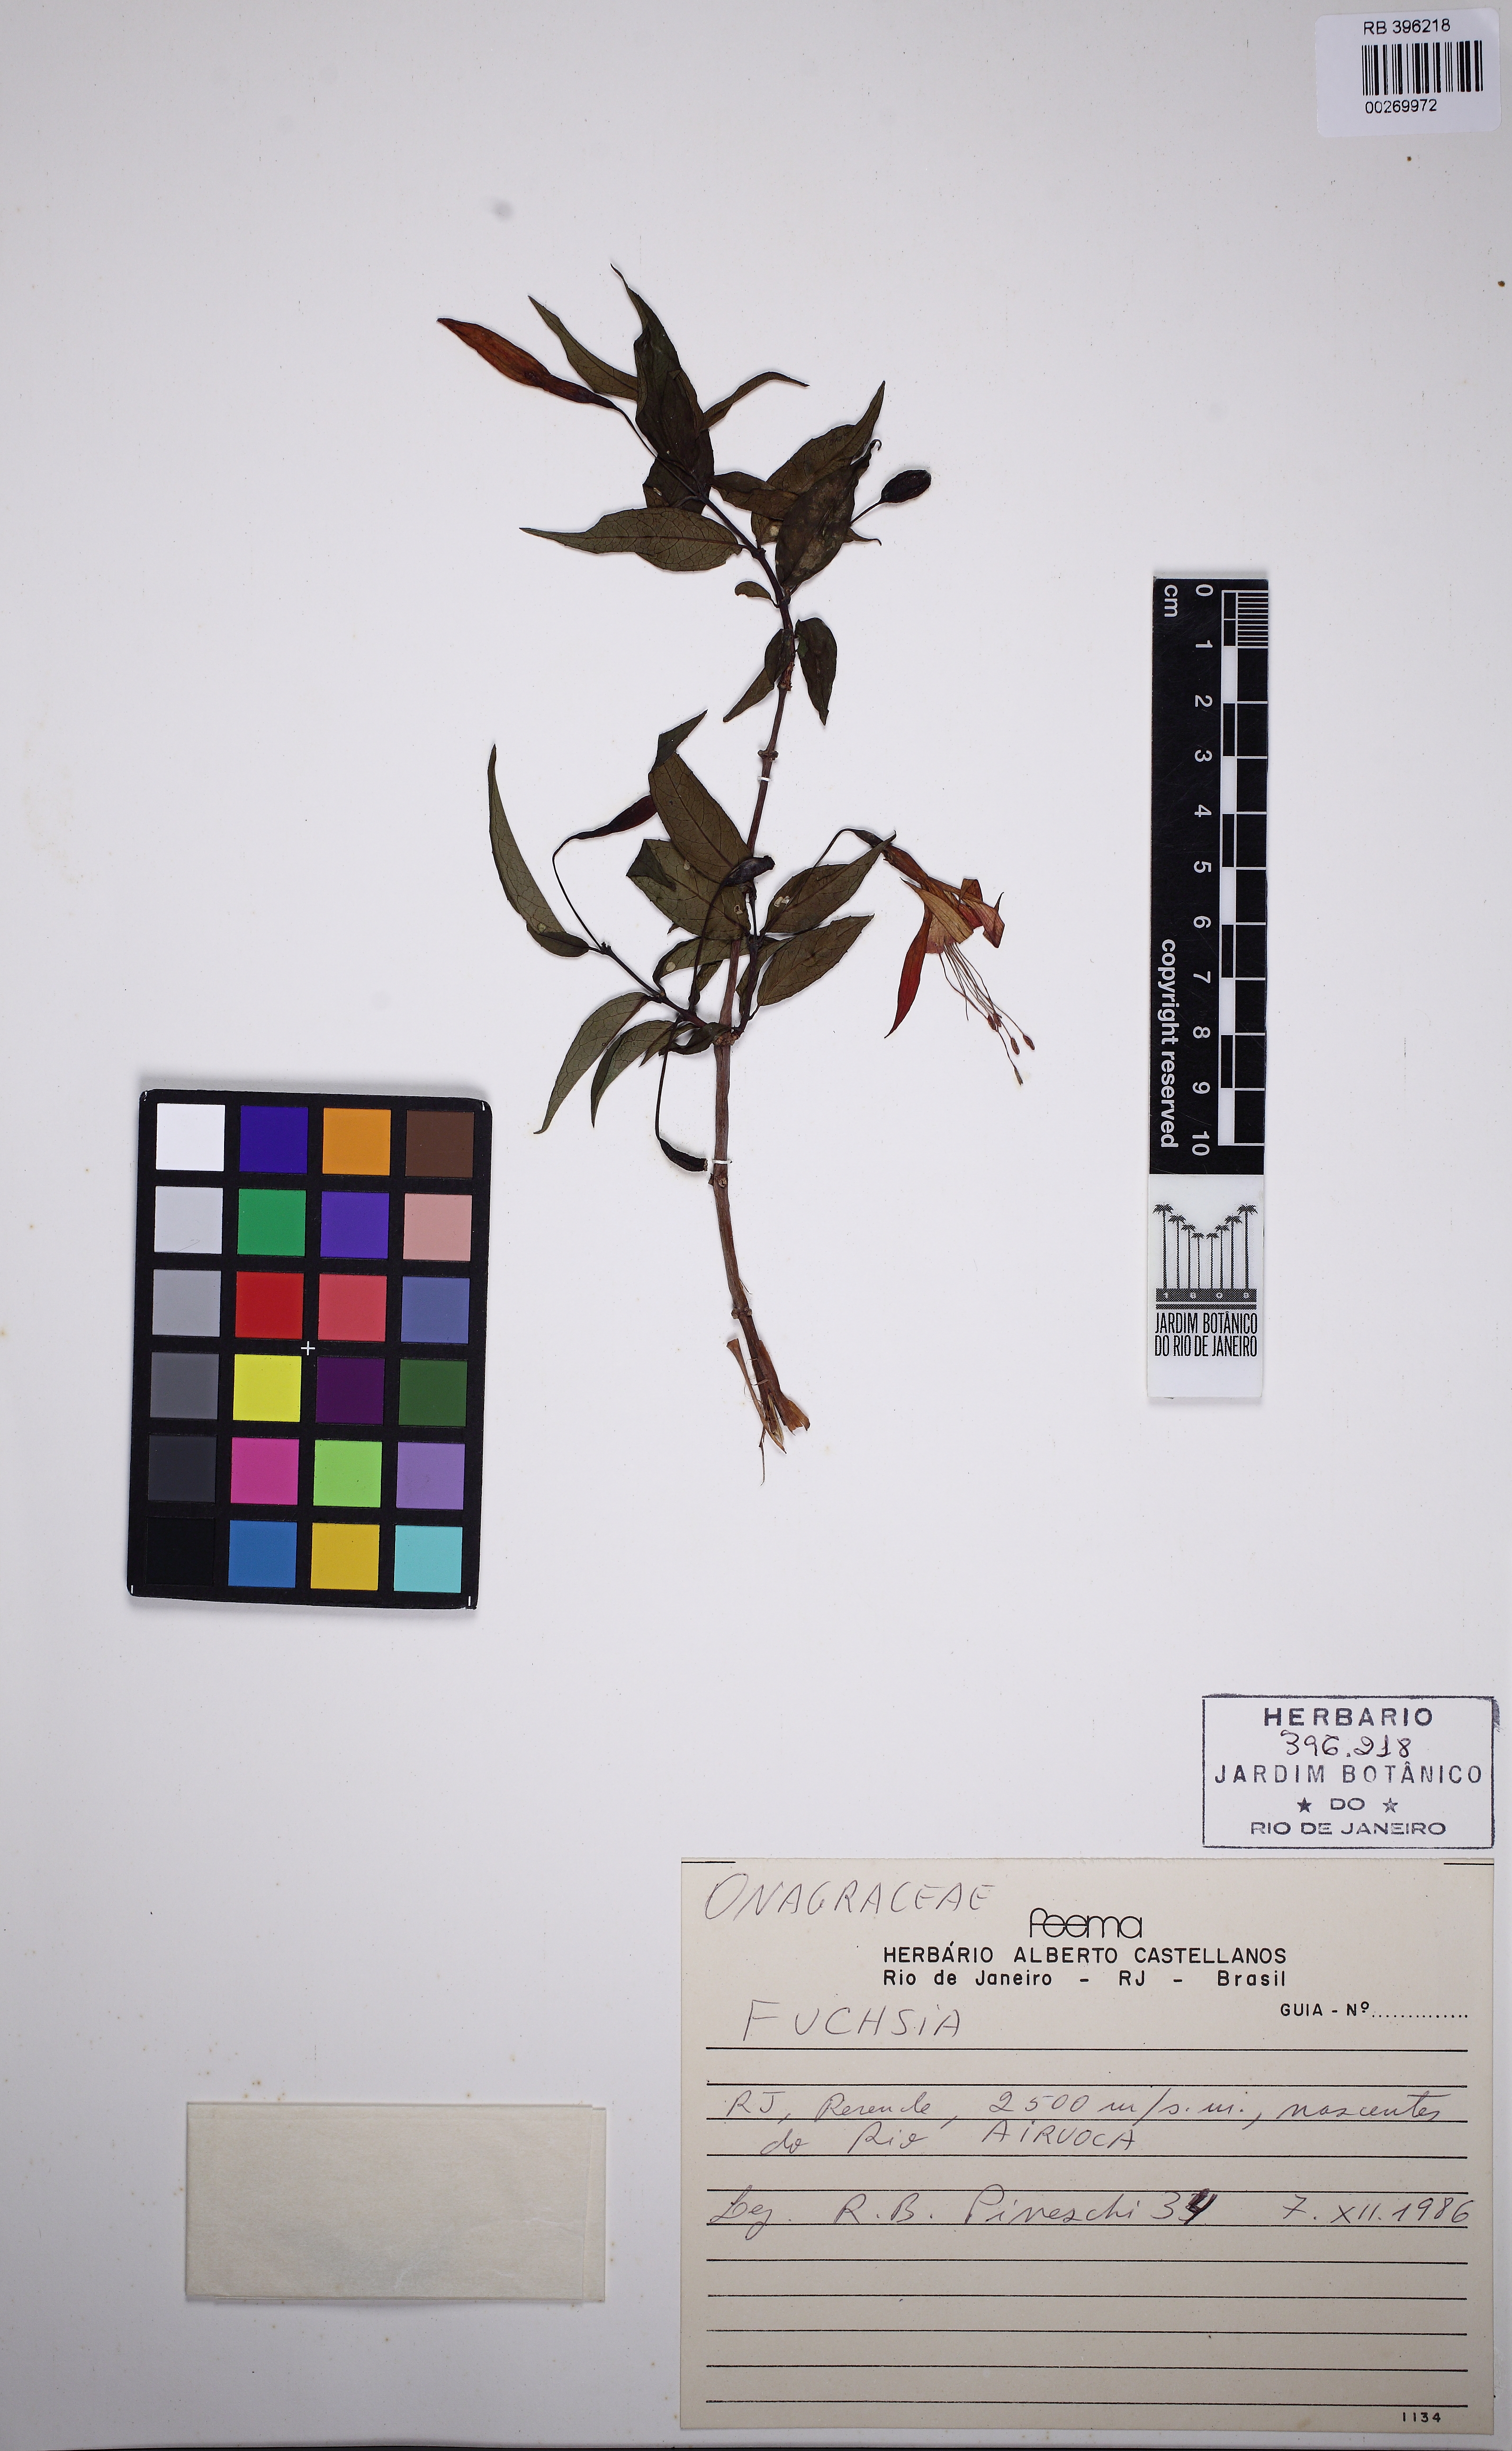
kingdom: Plantae
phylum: Tracheophyta
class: Magnoliopsida
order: Myrtales
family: Onagraceae
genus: Fuchsia
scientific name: Fuchsia
